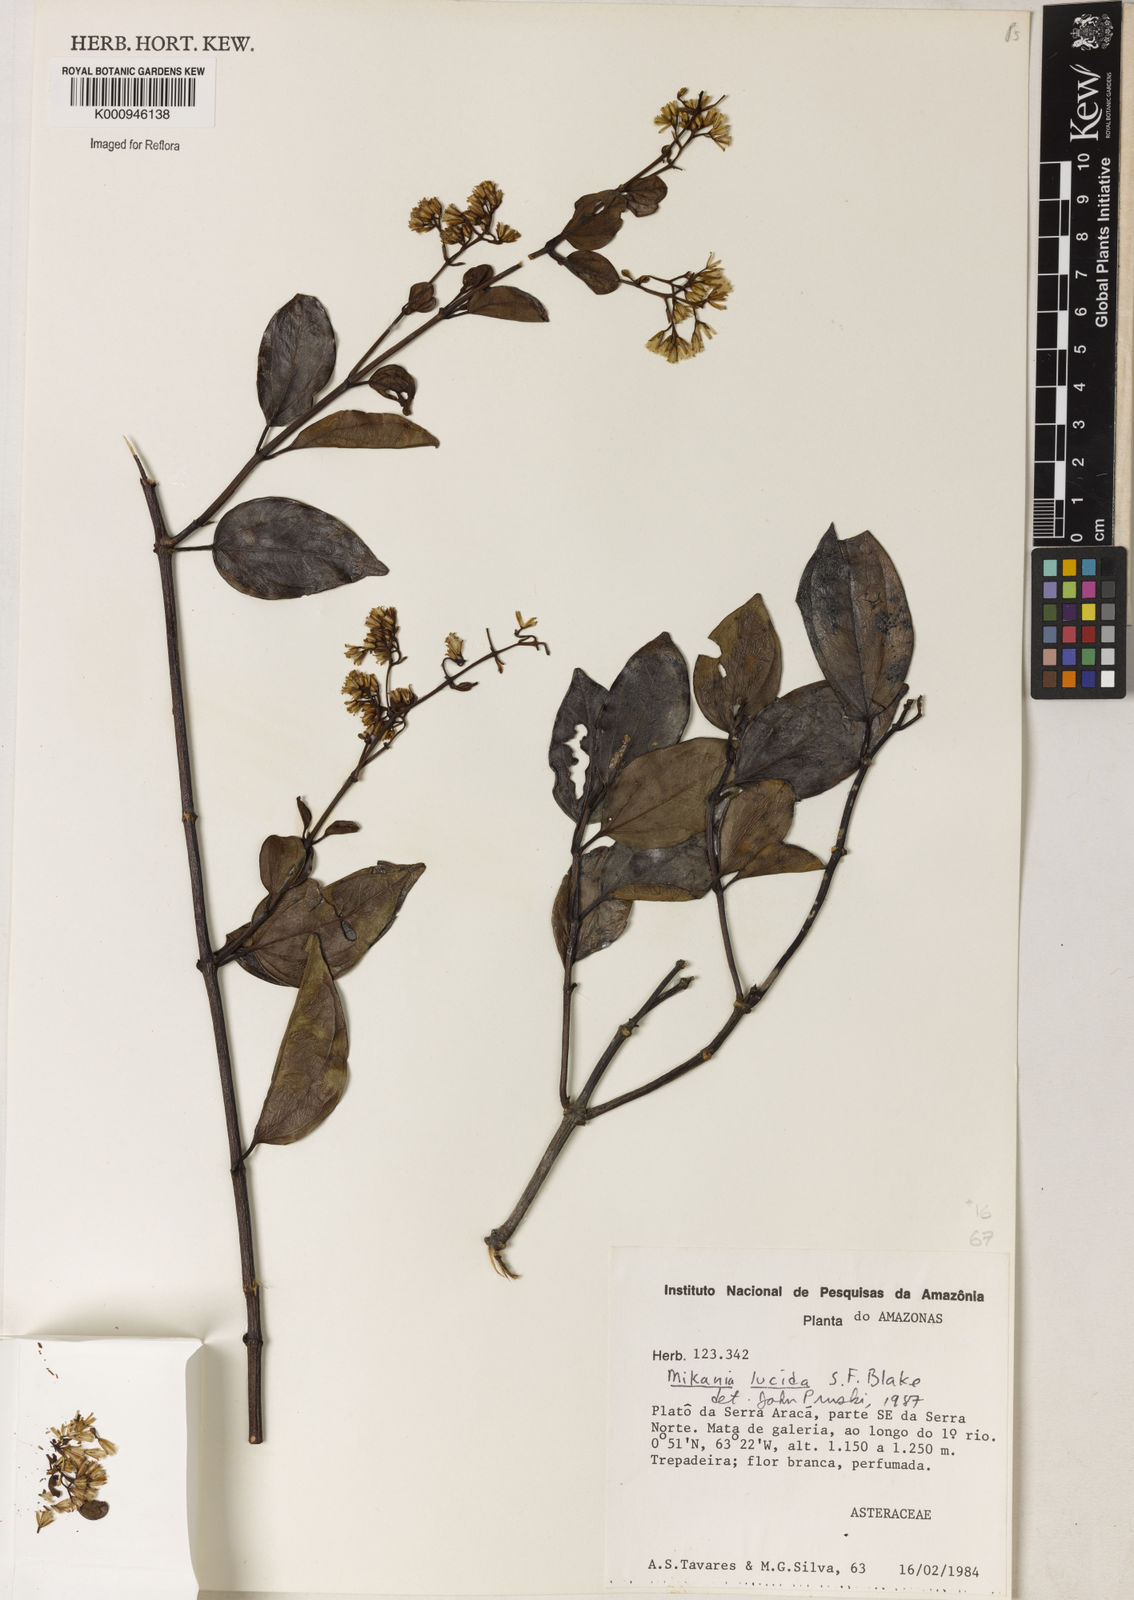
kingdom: Plantae
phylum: Tracheophyta
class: Magnoliopsida
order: Asterales
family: Asteraceae
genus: Mikania
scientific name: Mikania lucida
